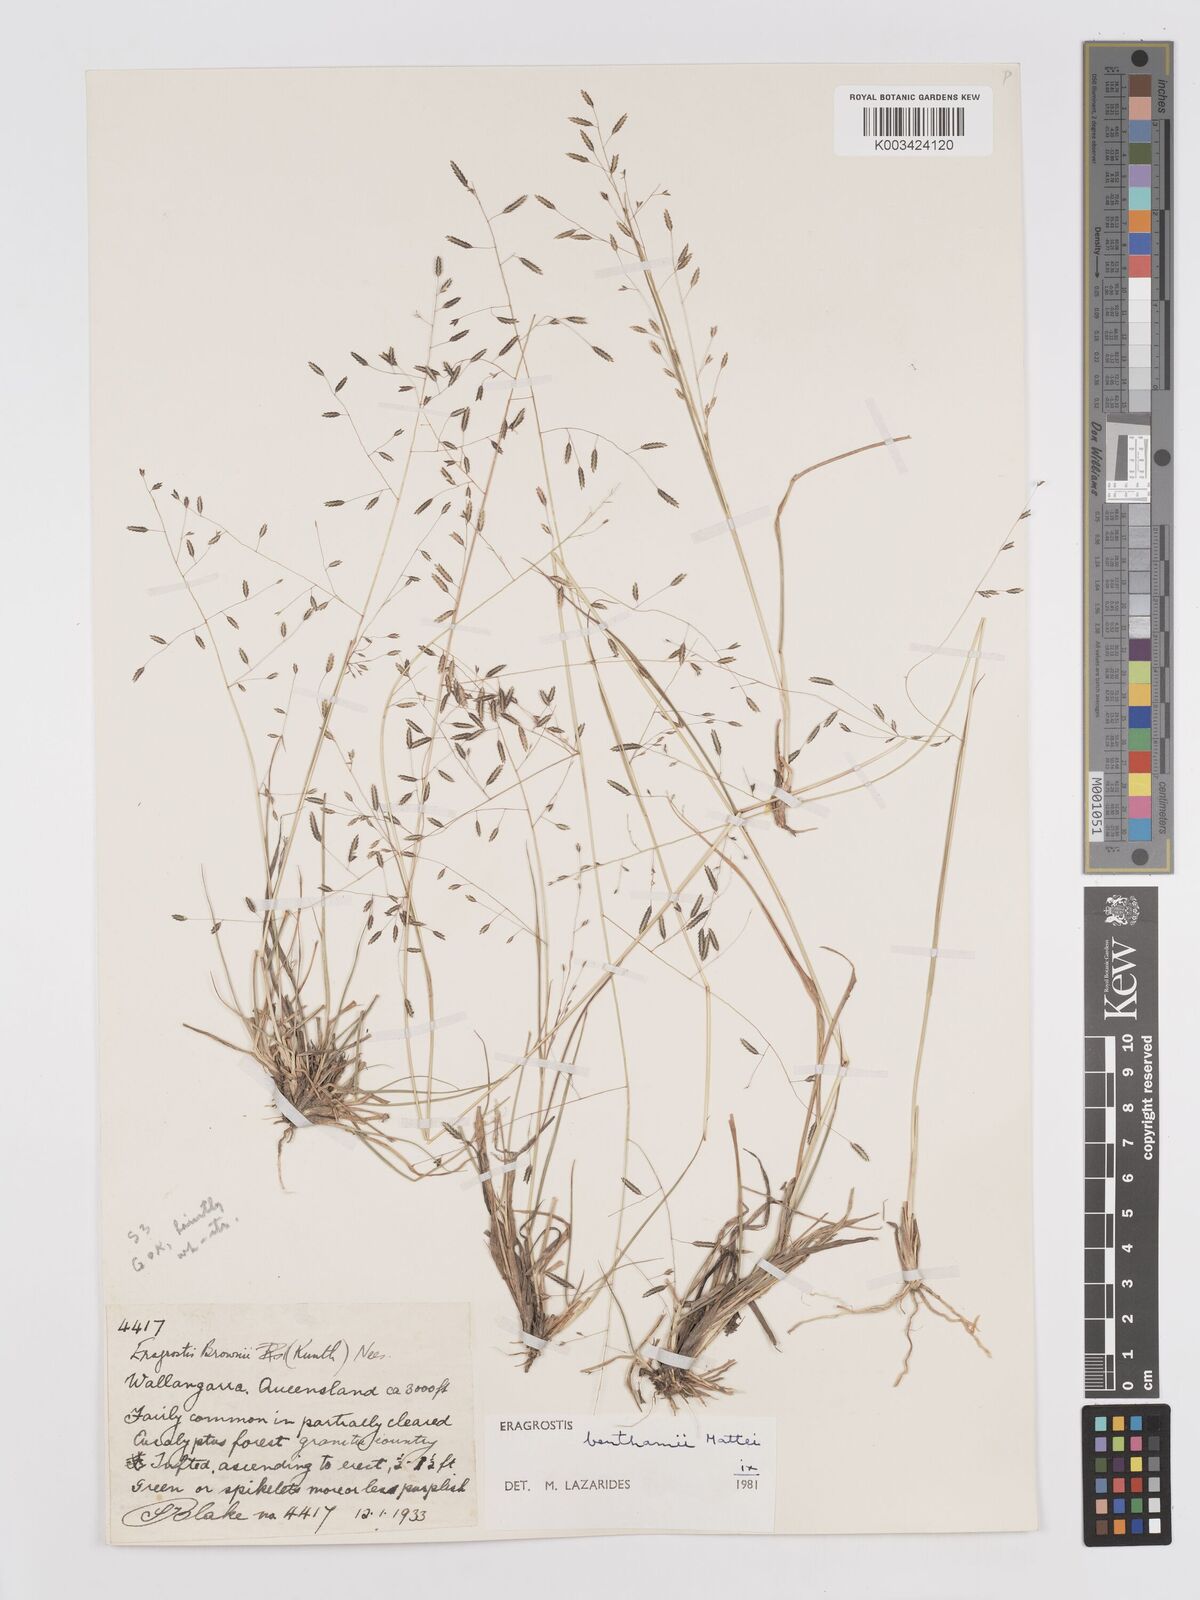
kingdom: Plantae
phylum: Tracheophyta
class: Liliopsida
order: Poales
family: Poaceae
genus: Eragrostis
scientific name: Eragrostis brownii
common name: Lovegrass
